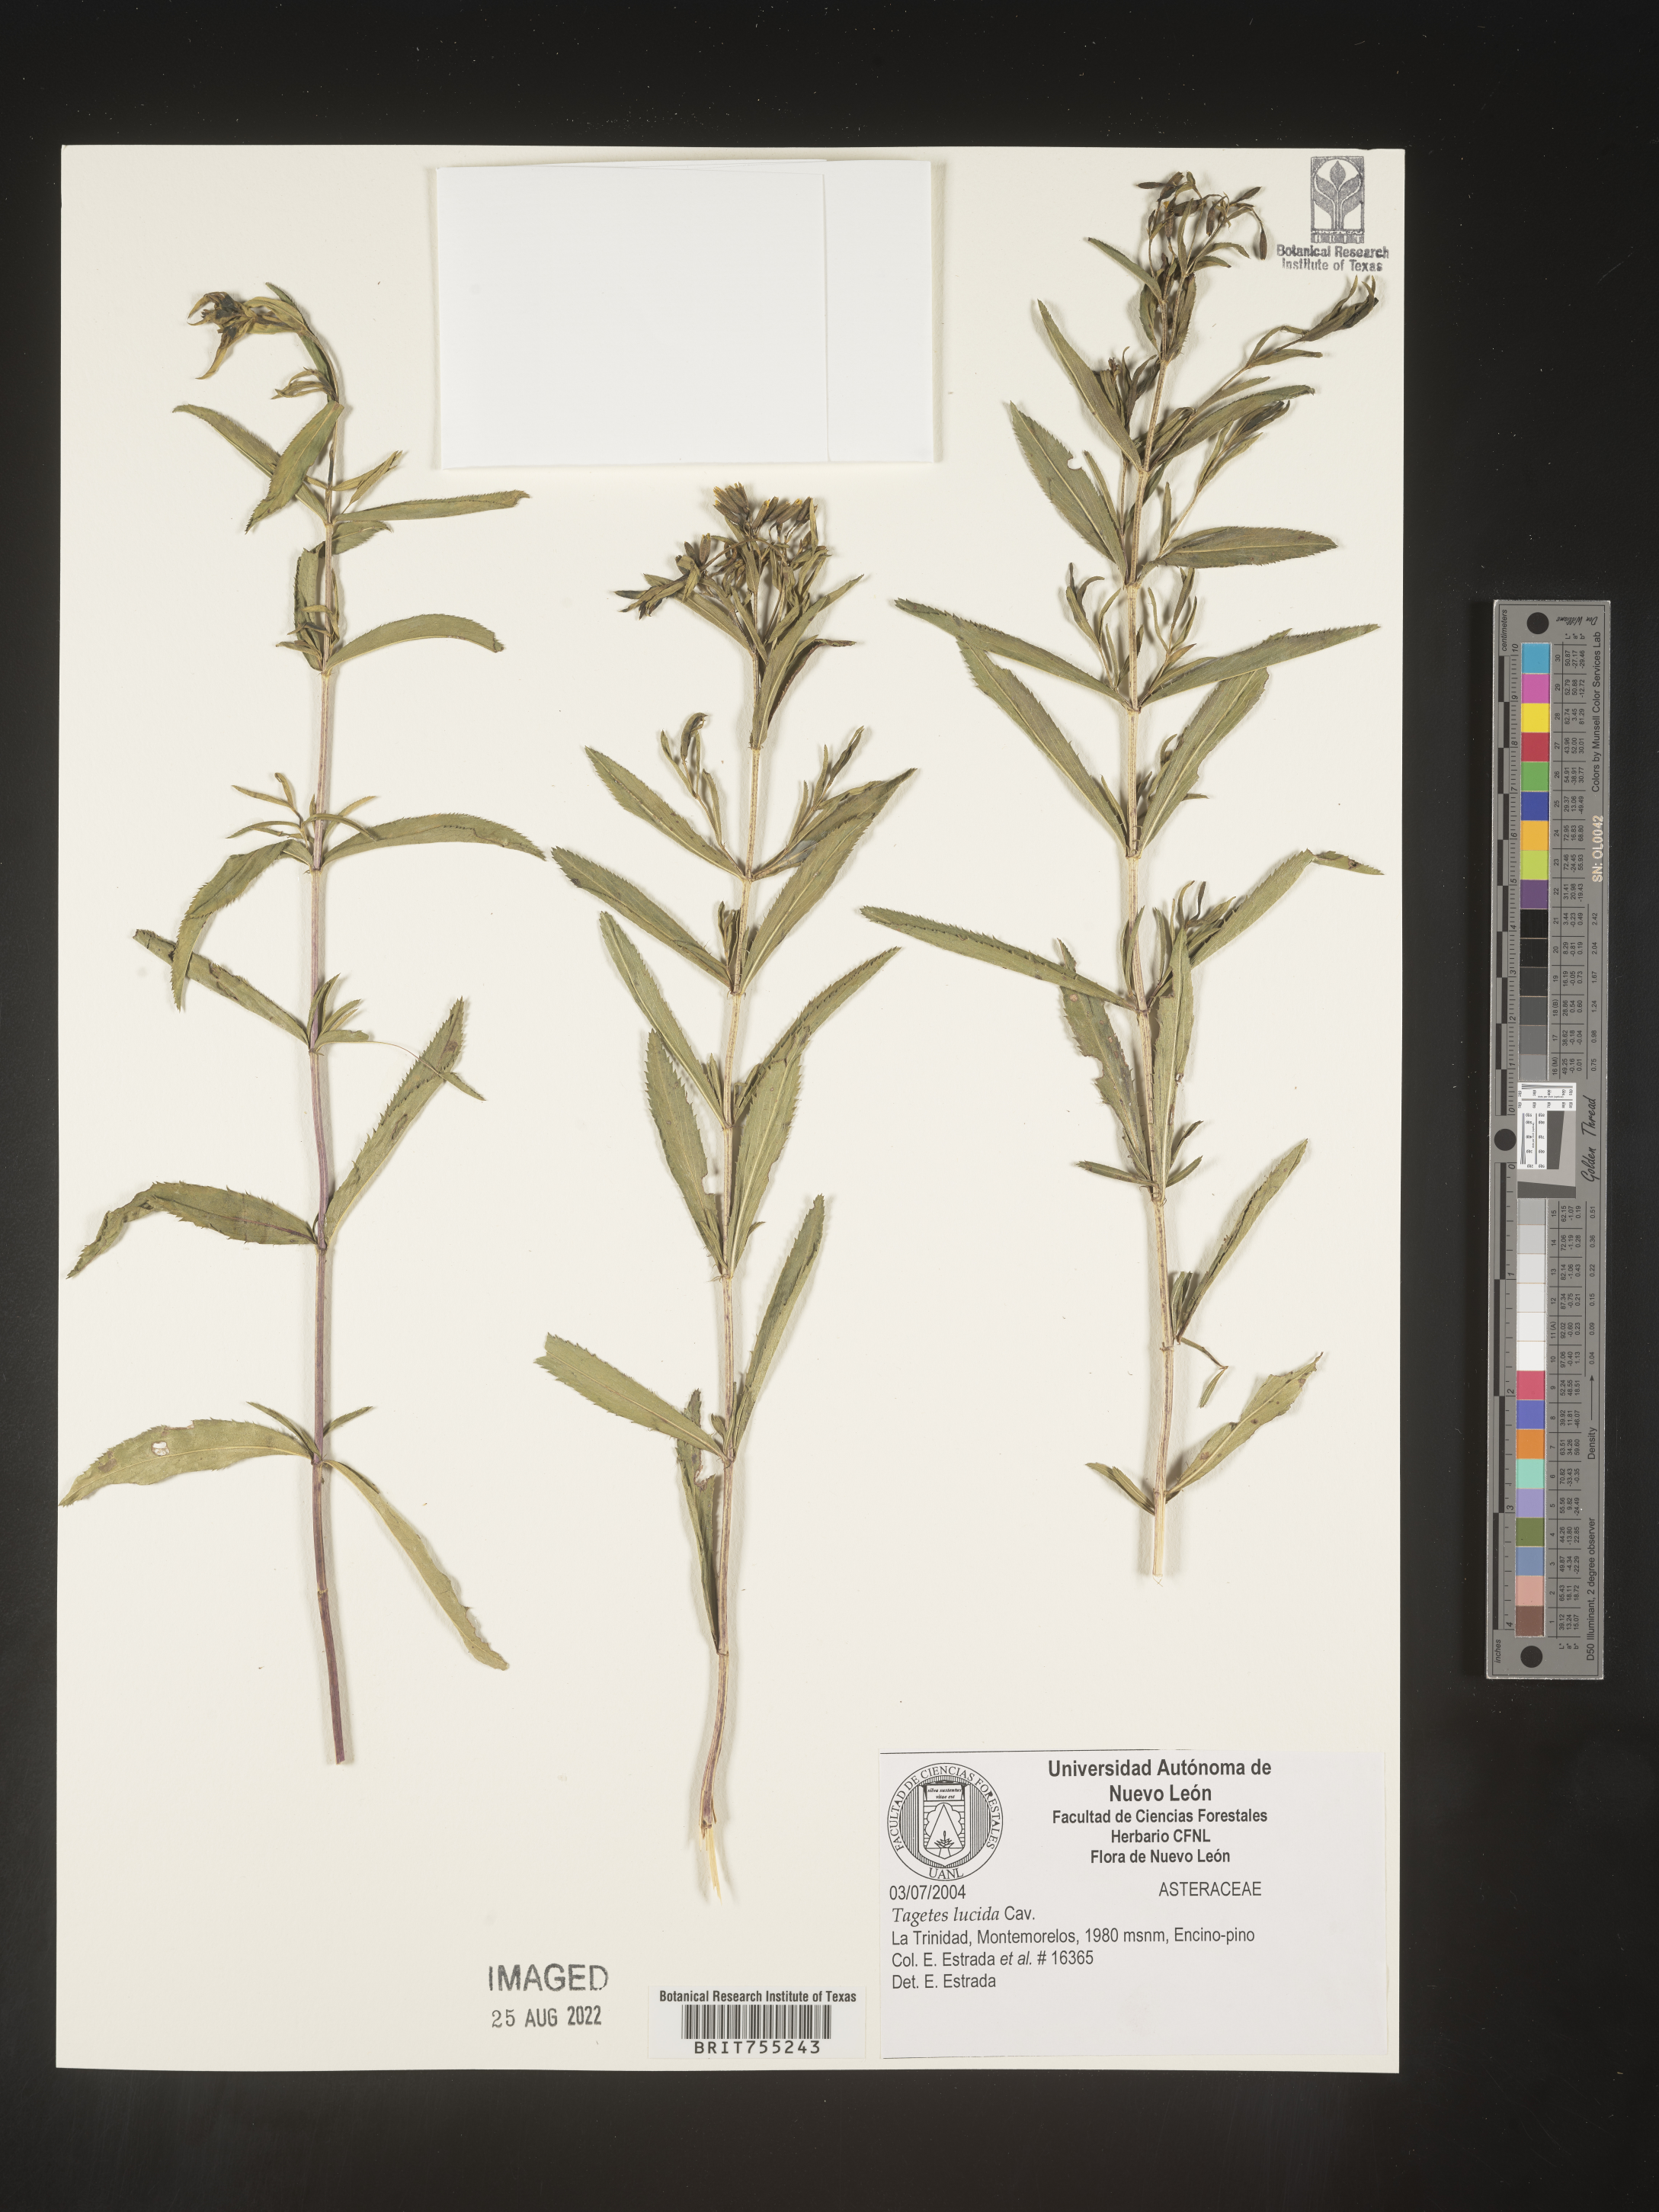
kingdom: Plantae
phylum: Tracheophyta
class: Magnoliopsida
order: Asterales
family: Asteraceae
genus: Tagetes
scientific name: Tagetes lucida
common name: Sweetscented marigold
